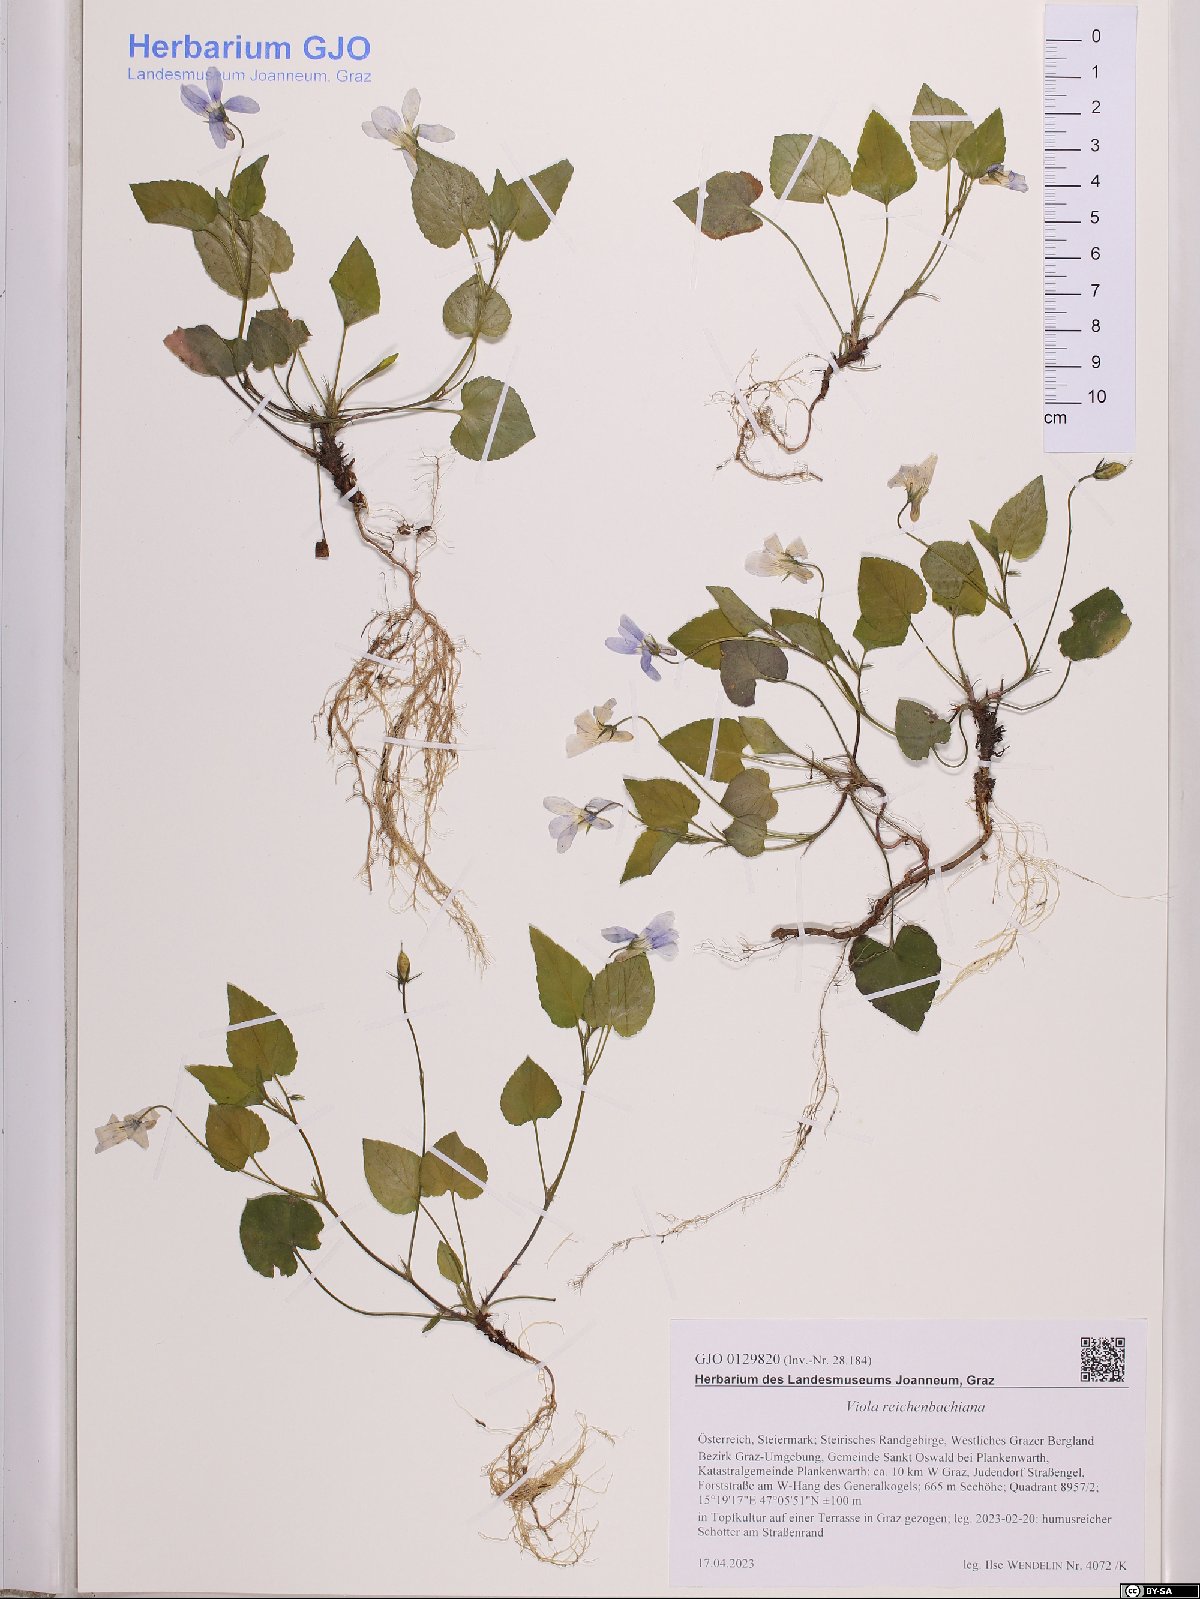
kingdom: Plantae
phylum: Tracheophyta
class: Magnoliopsida
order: Malpighiales
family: Violaceae
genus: Viola
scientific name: Viola reichenbachiana
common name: Early dog-violet
